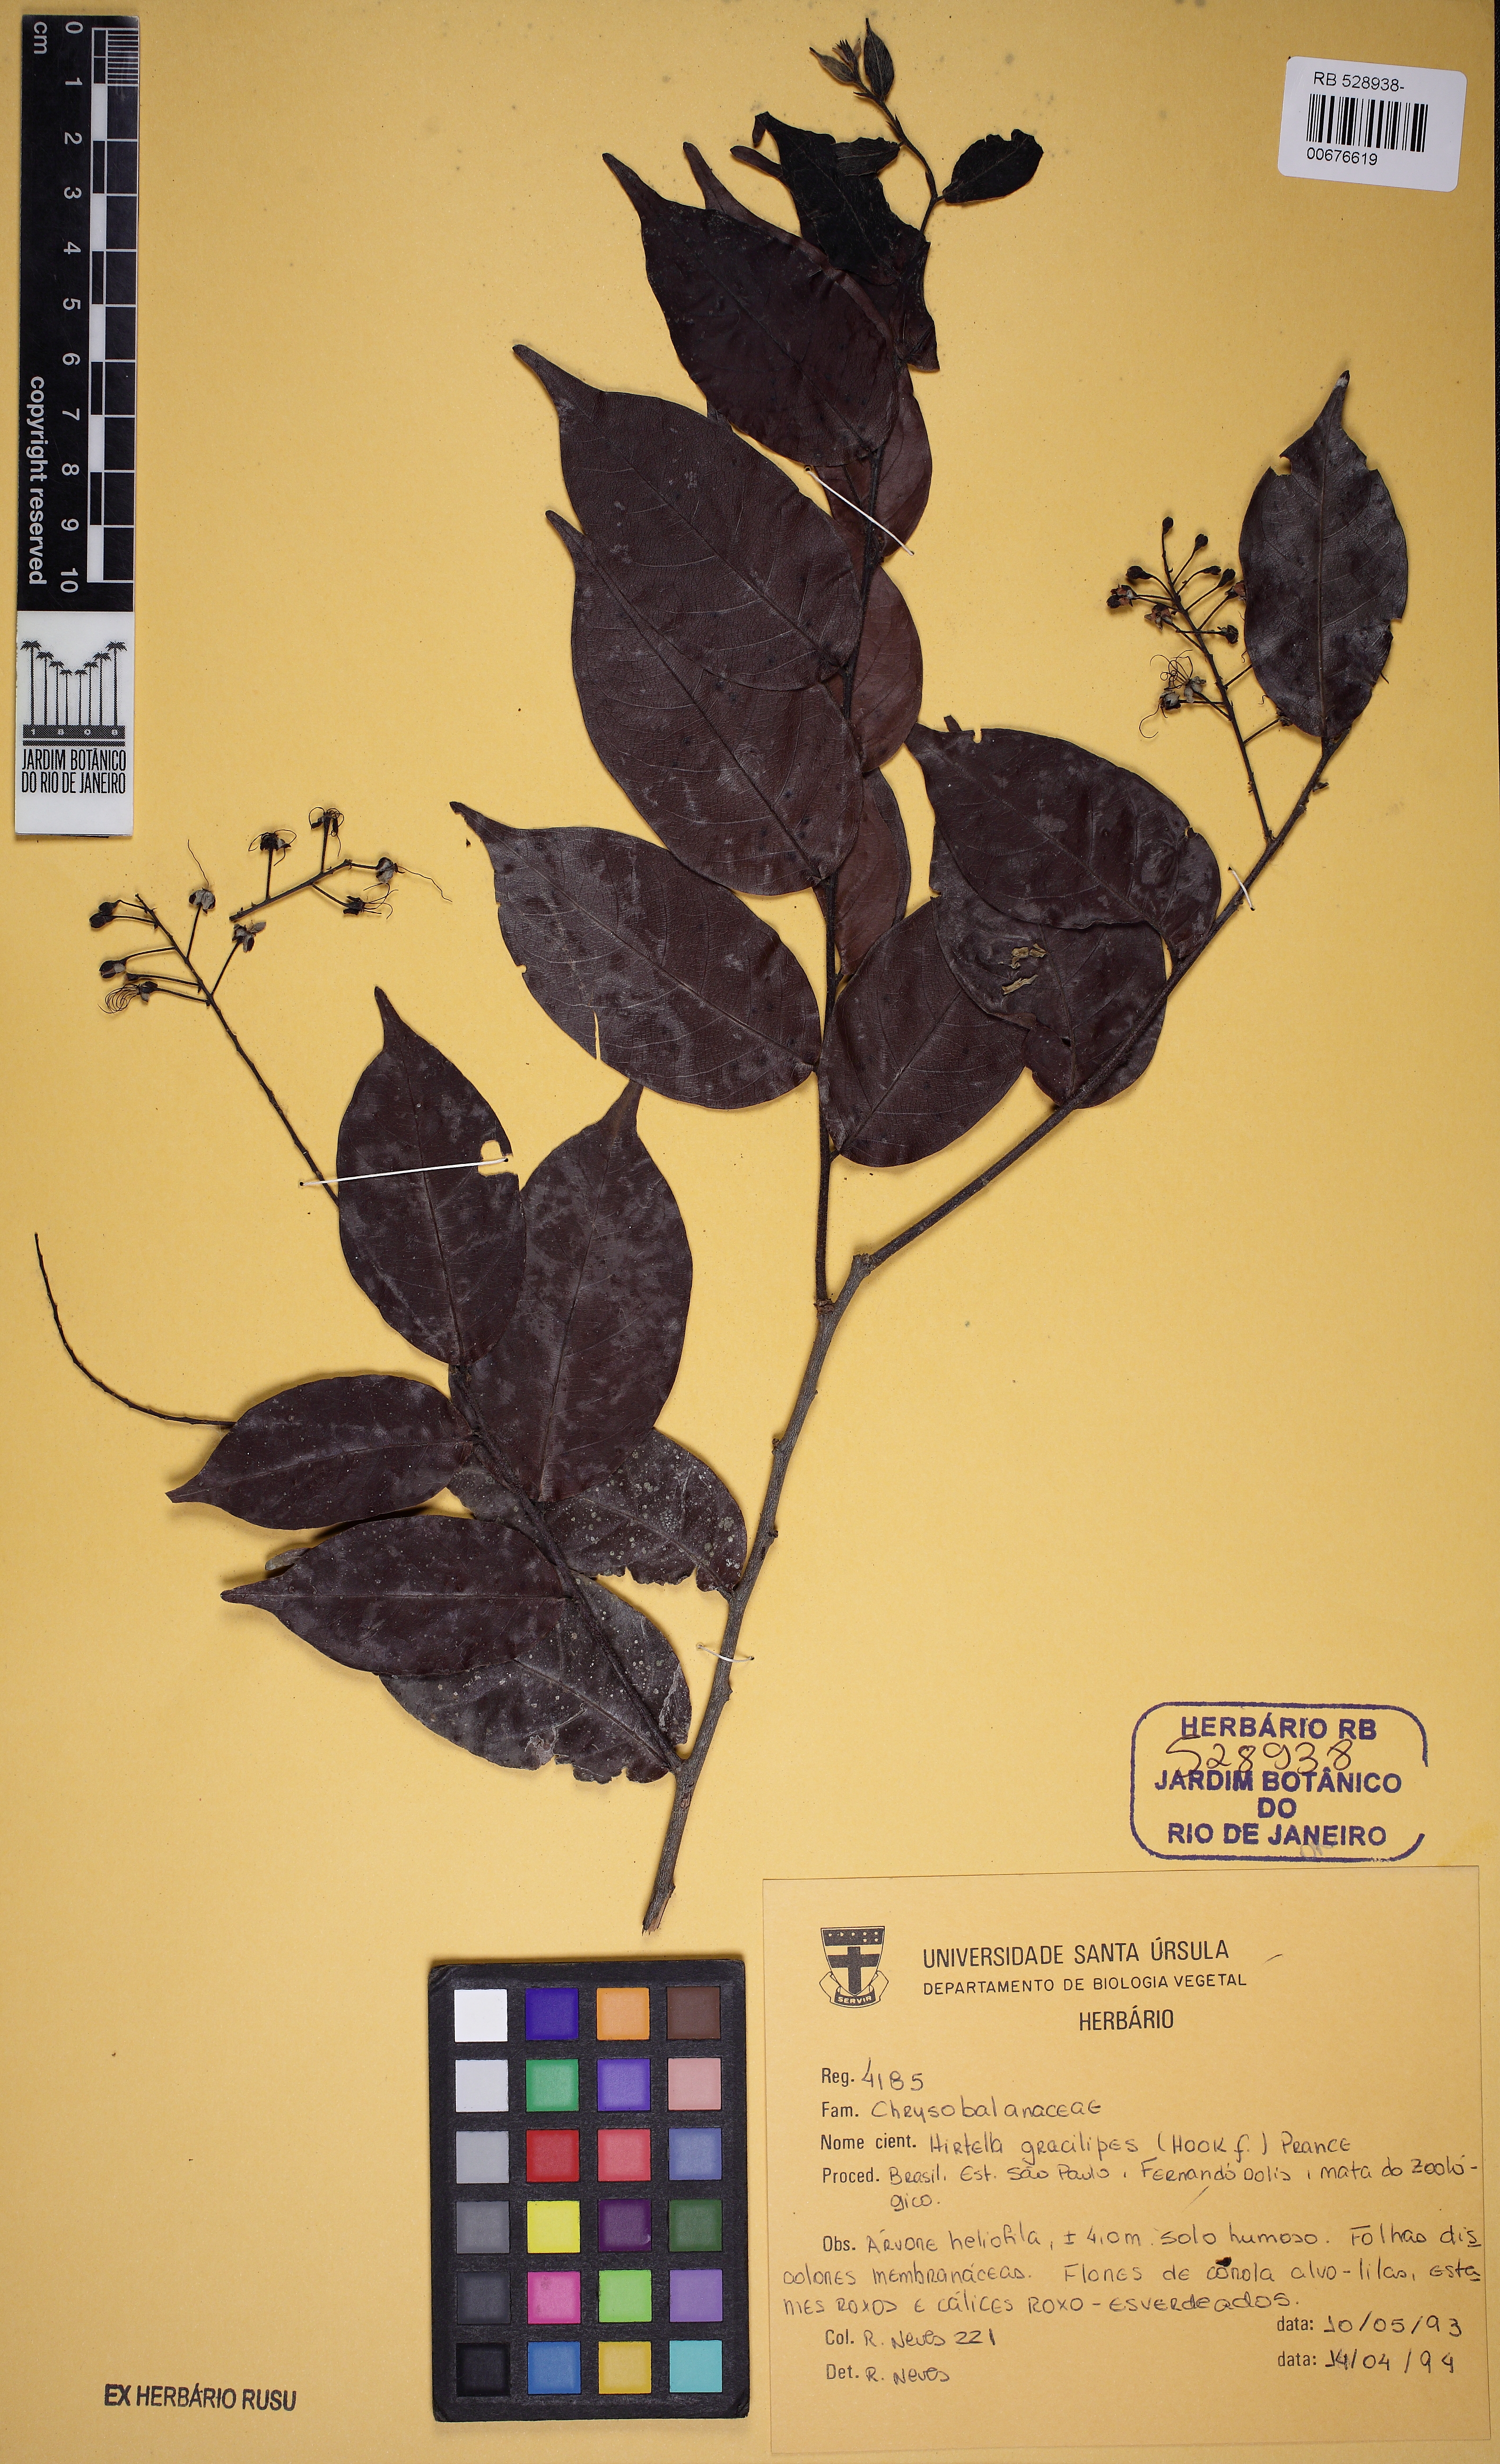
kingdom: Plantae
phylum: Tracheophyta
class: Magnoliopsida
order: Malpighiales
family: Chrysobalanaceae
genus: Hirtella
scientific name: Hirtella gracilipes
